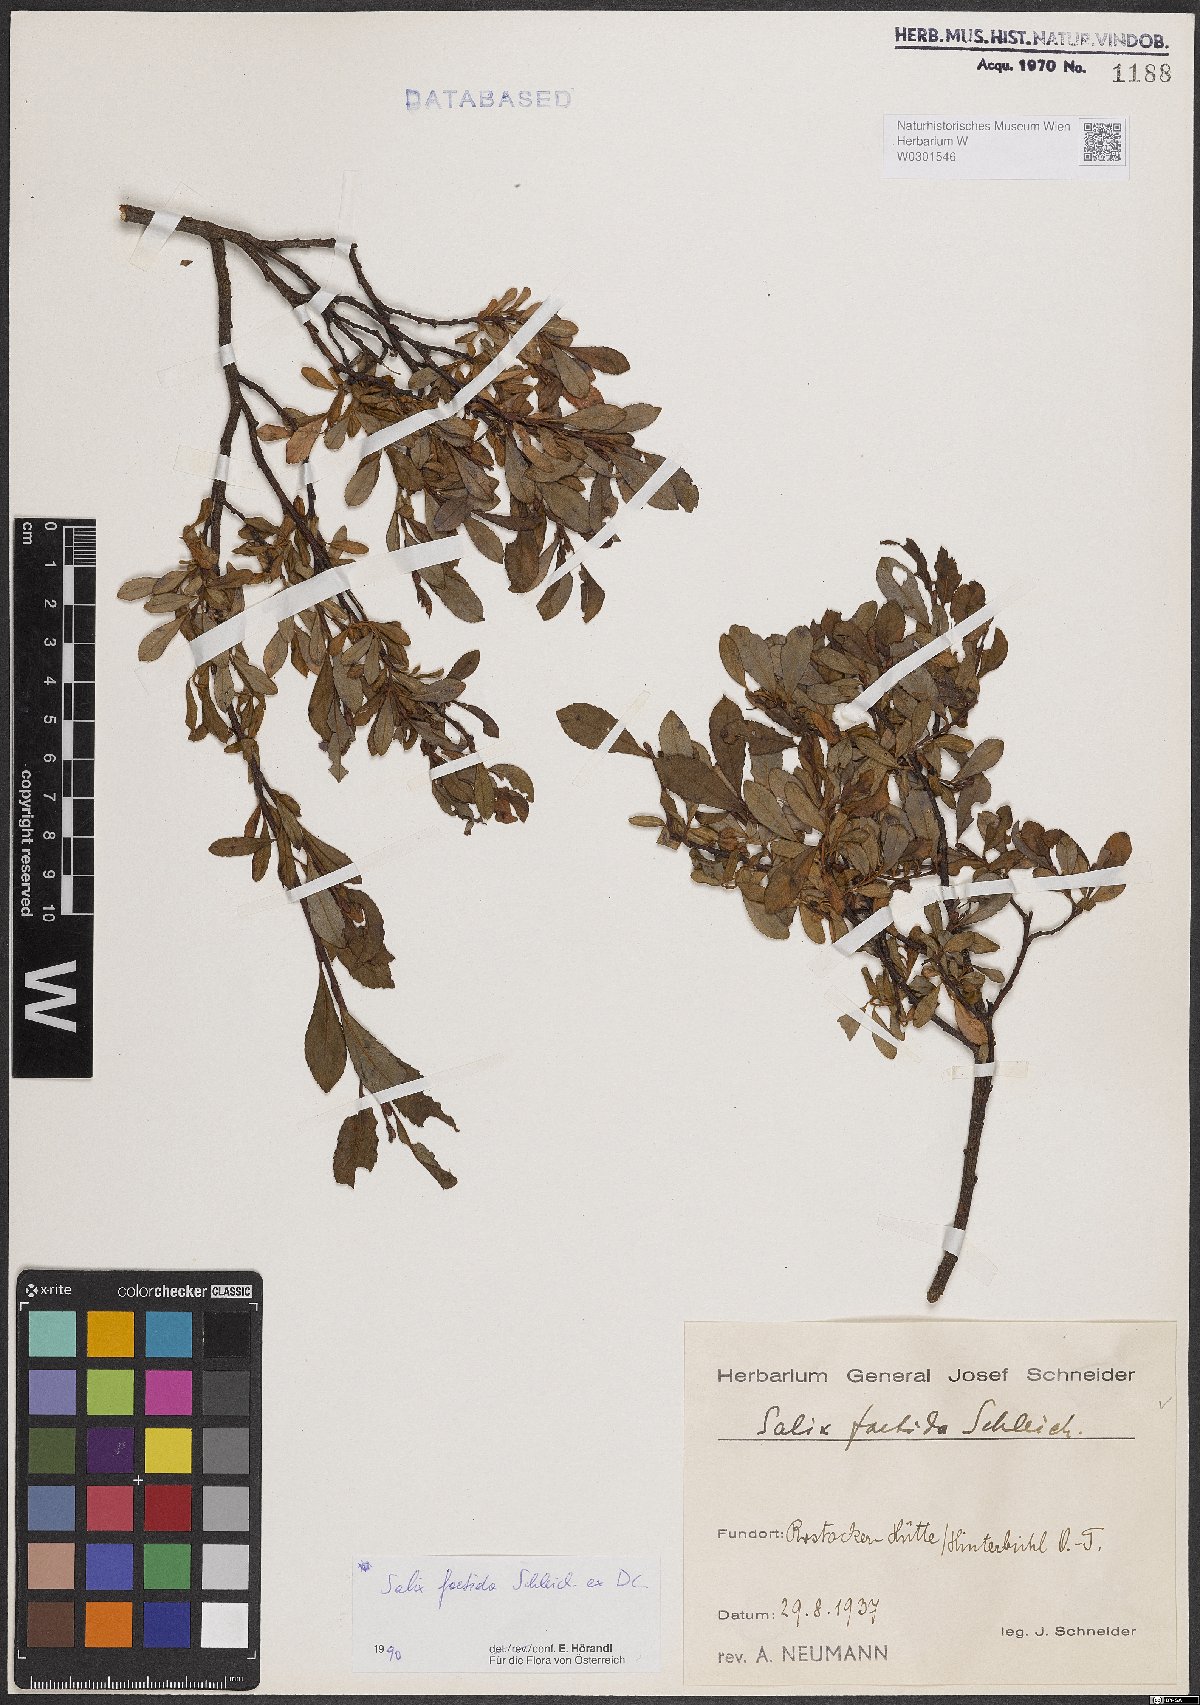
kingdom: Plantae
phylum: Tracheophyta
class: Magnoliopsida
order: Malpighiales
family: Salicaceae
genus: Salix
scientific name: Salix foetida
